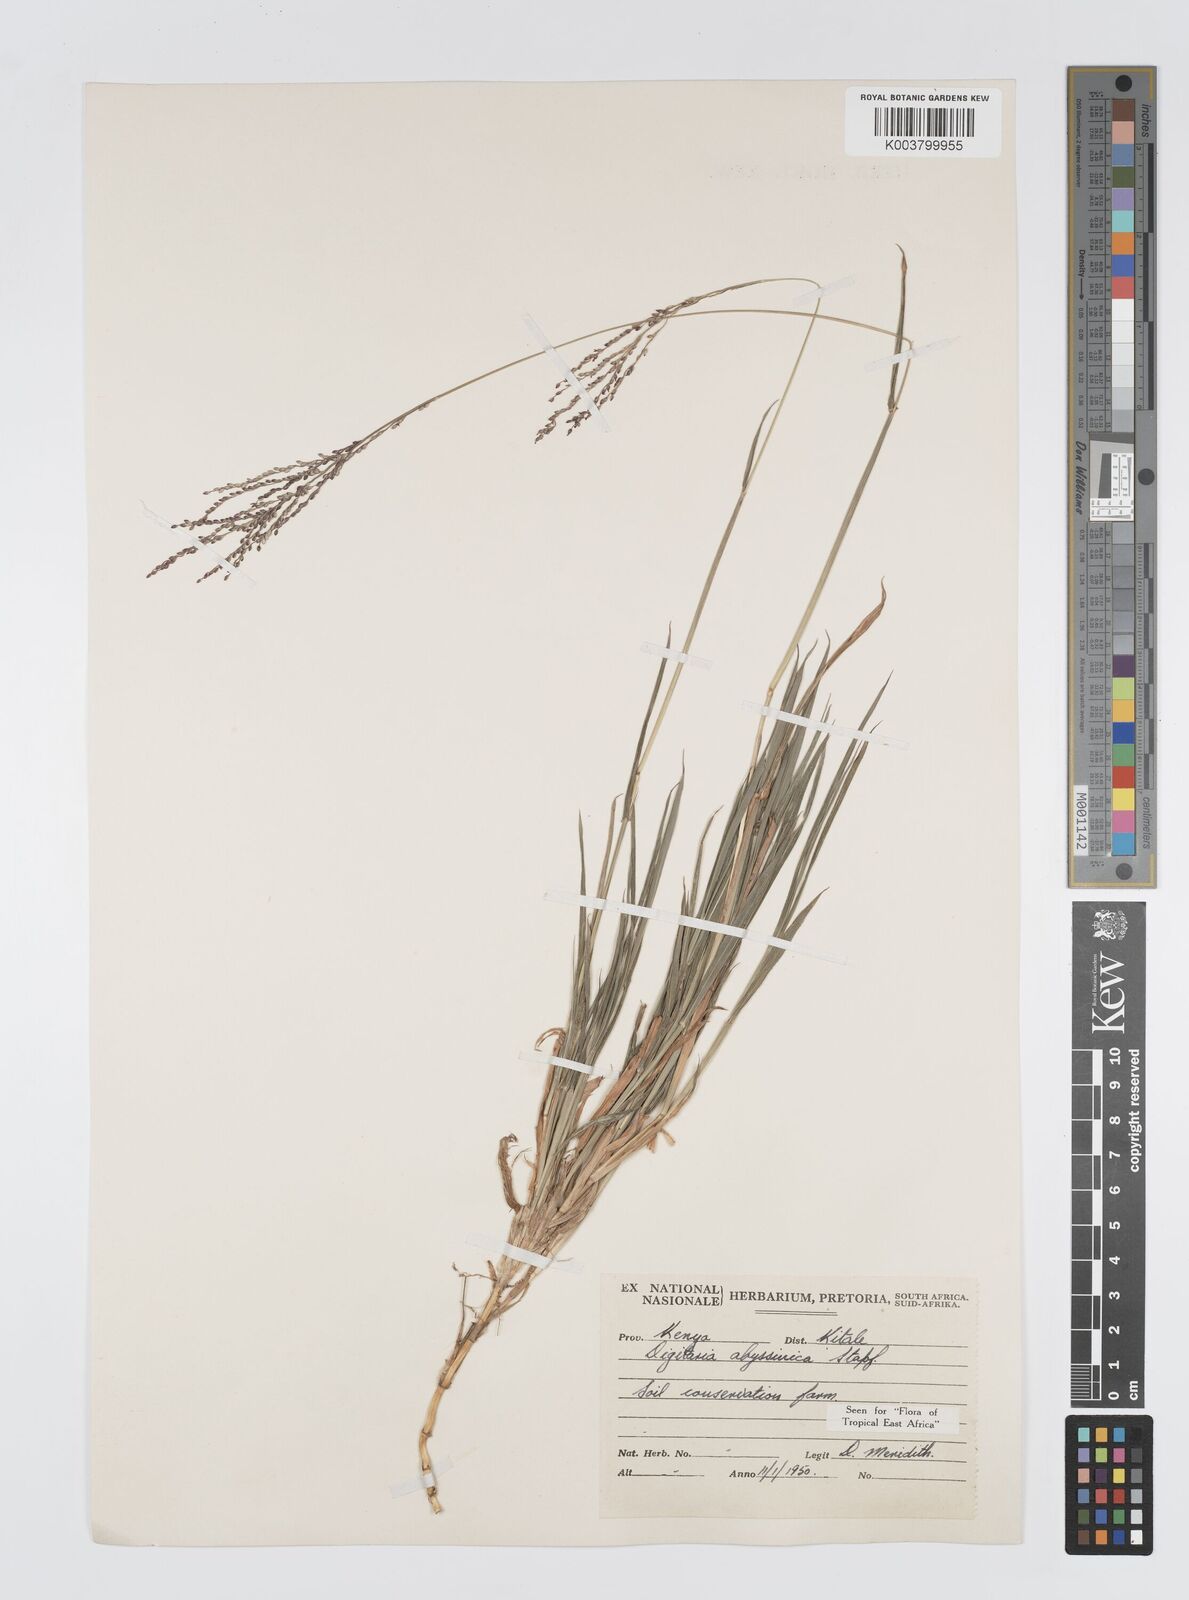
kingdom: Plantae
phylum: Tracheophyta
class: Liliopsida
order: Poales
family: Poaceae
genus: Digitaria
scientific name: Digitaria abyssinica
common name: African couchgrass
